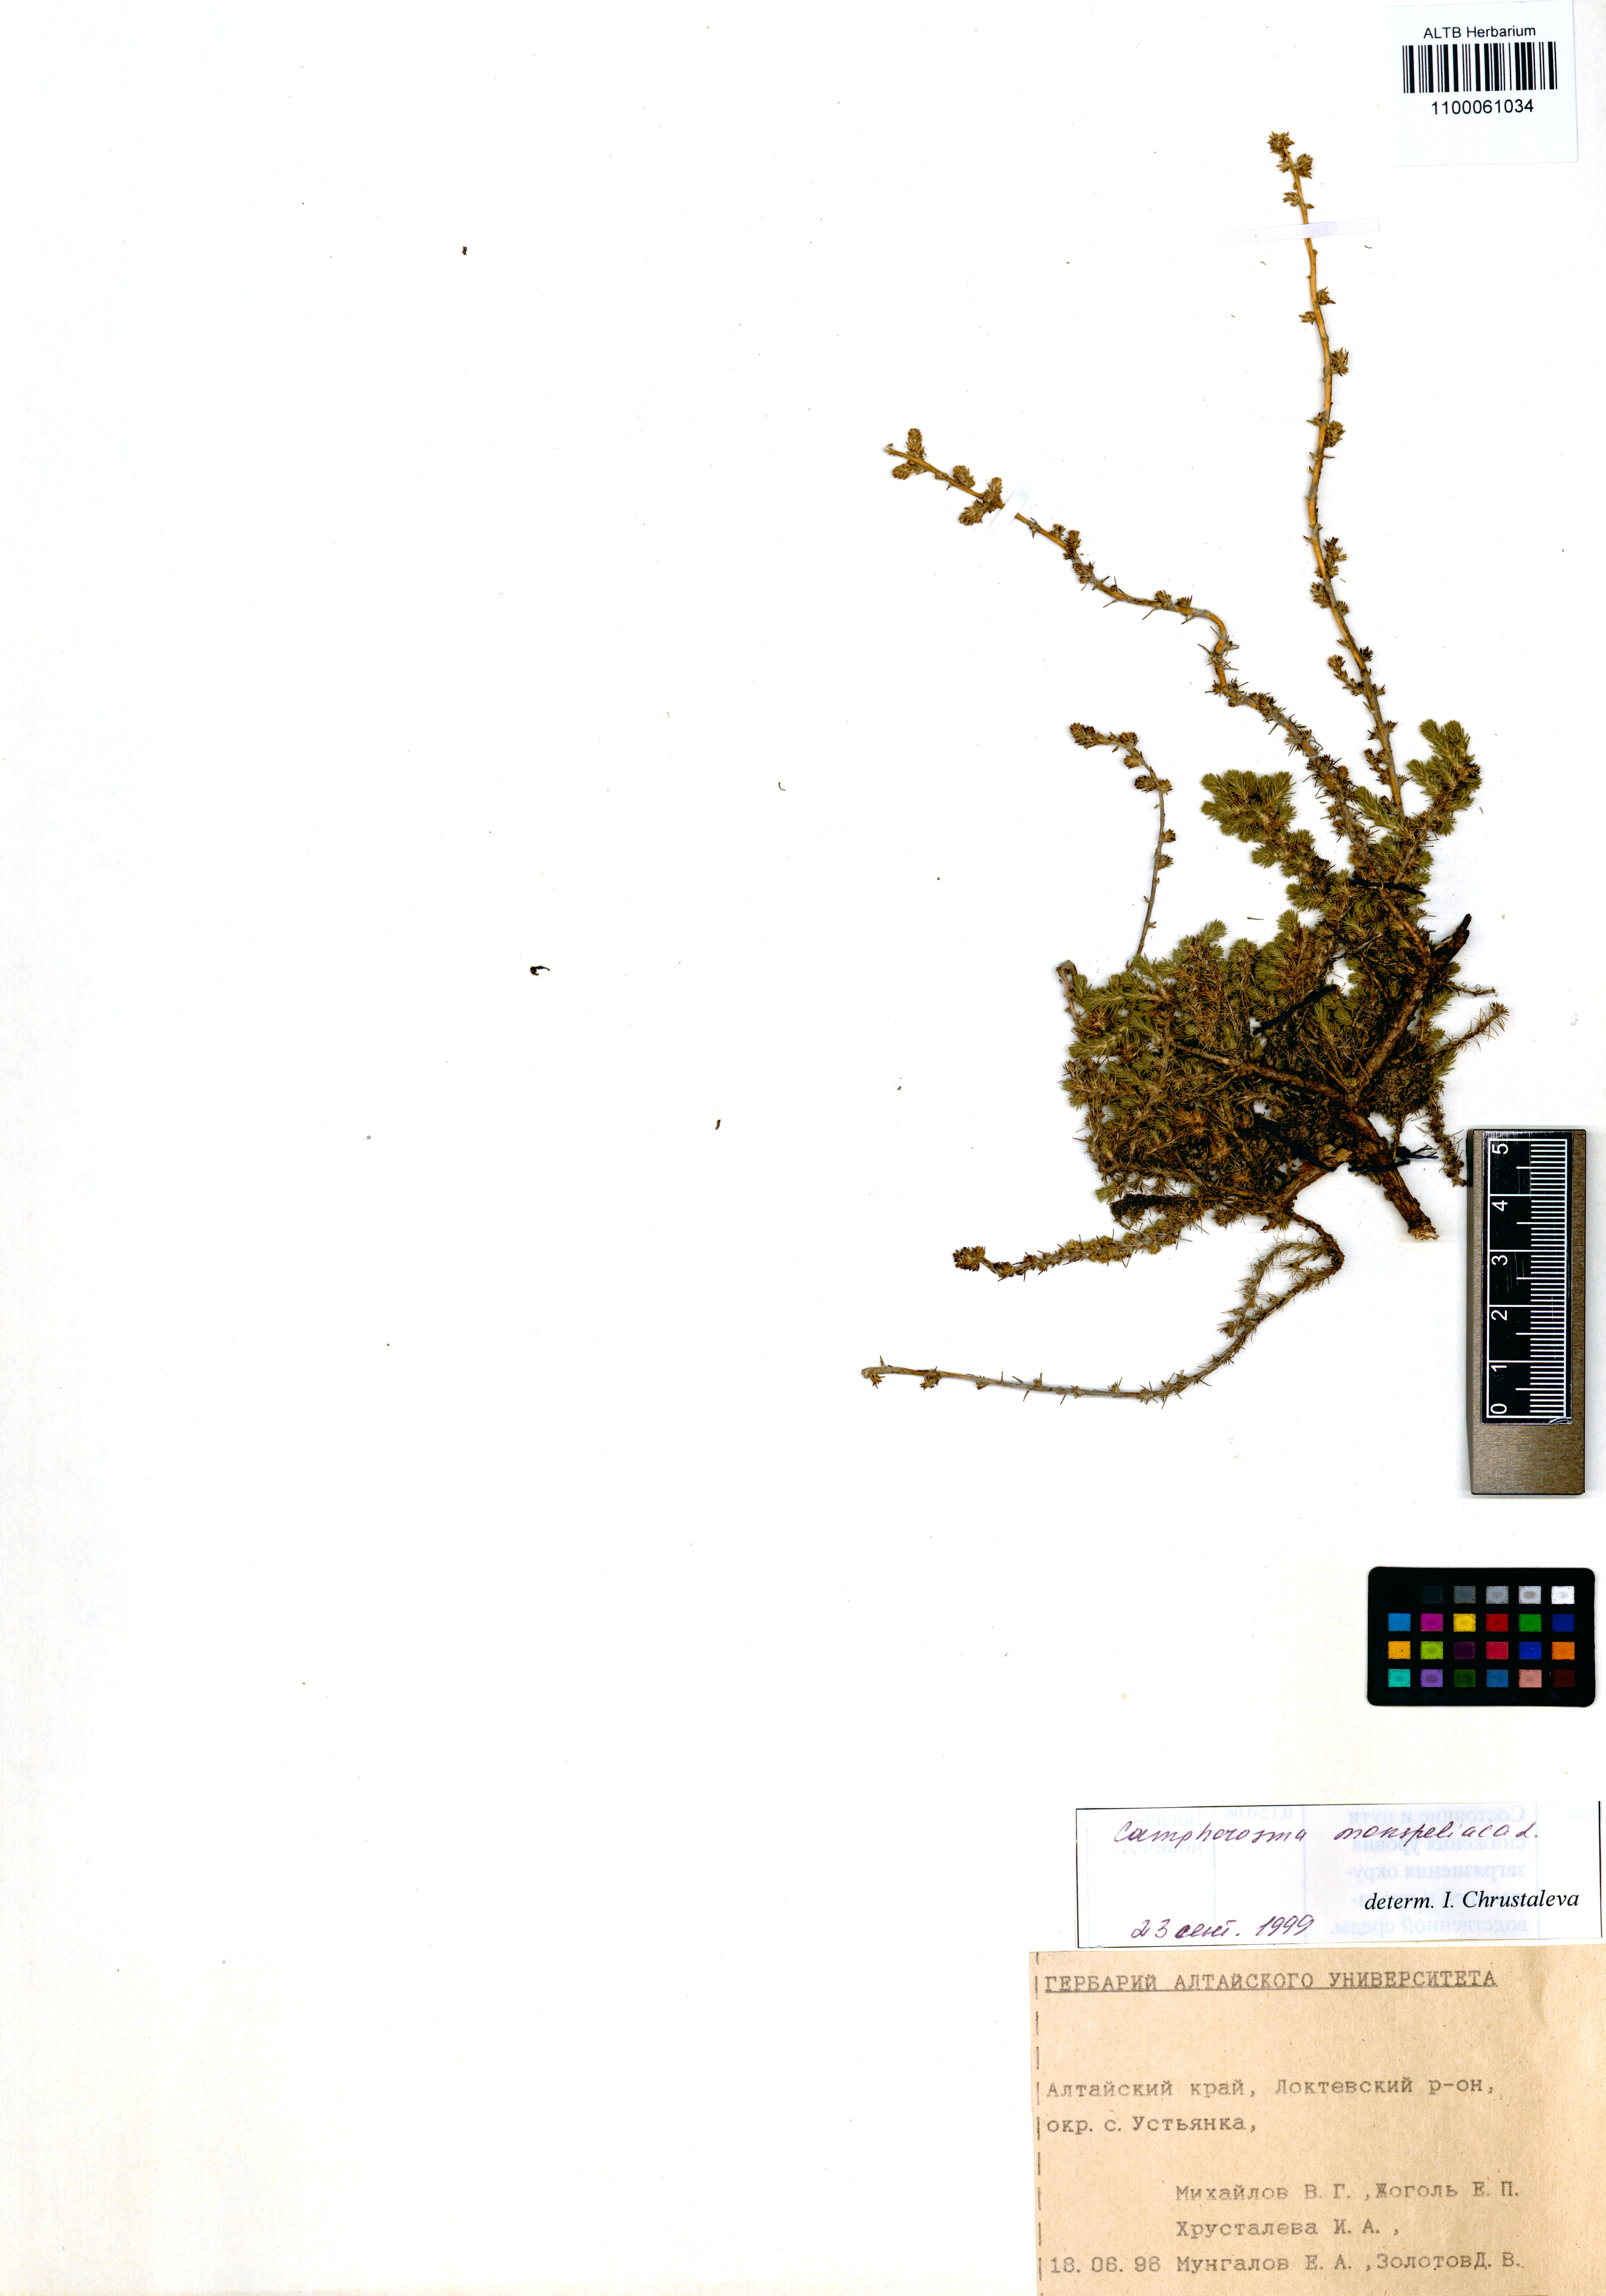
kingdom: Plantae
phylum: Tracheophyta
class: Magnoliopsida
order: Caryophyllales
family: Amaranthaceae
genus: Camphorosma
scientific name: Camphorosma monspeliaca
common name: Camphorfume
